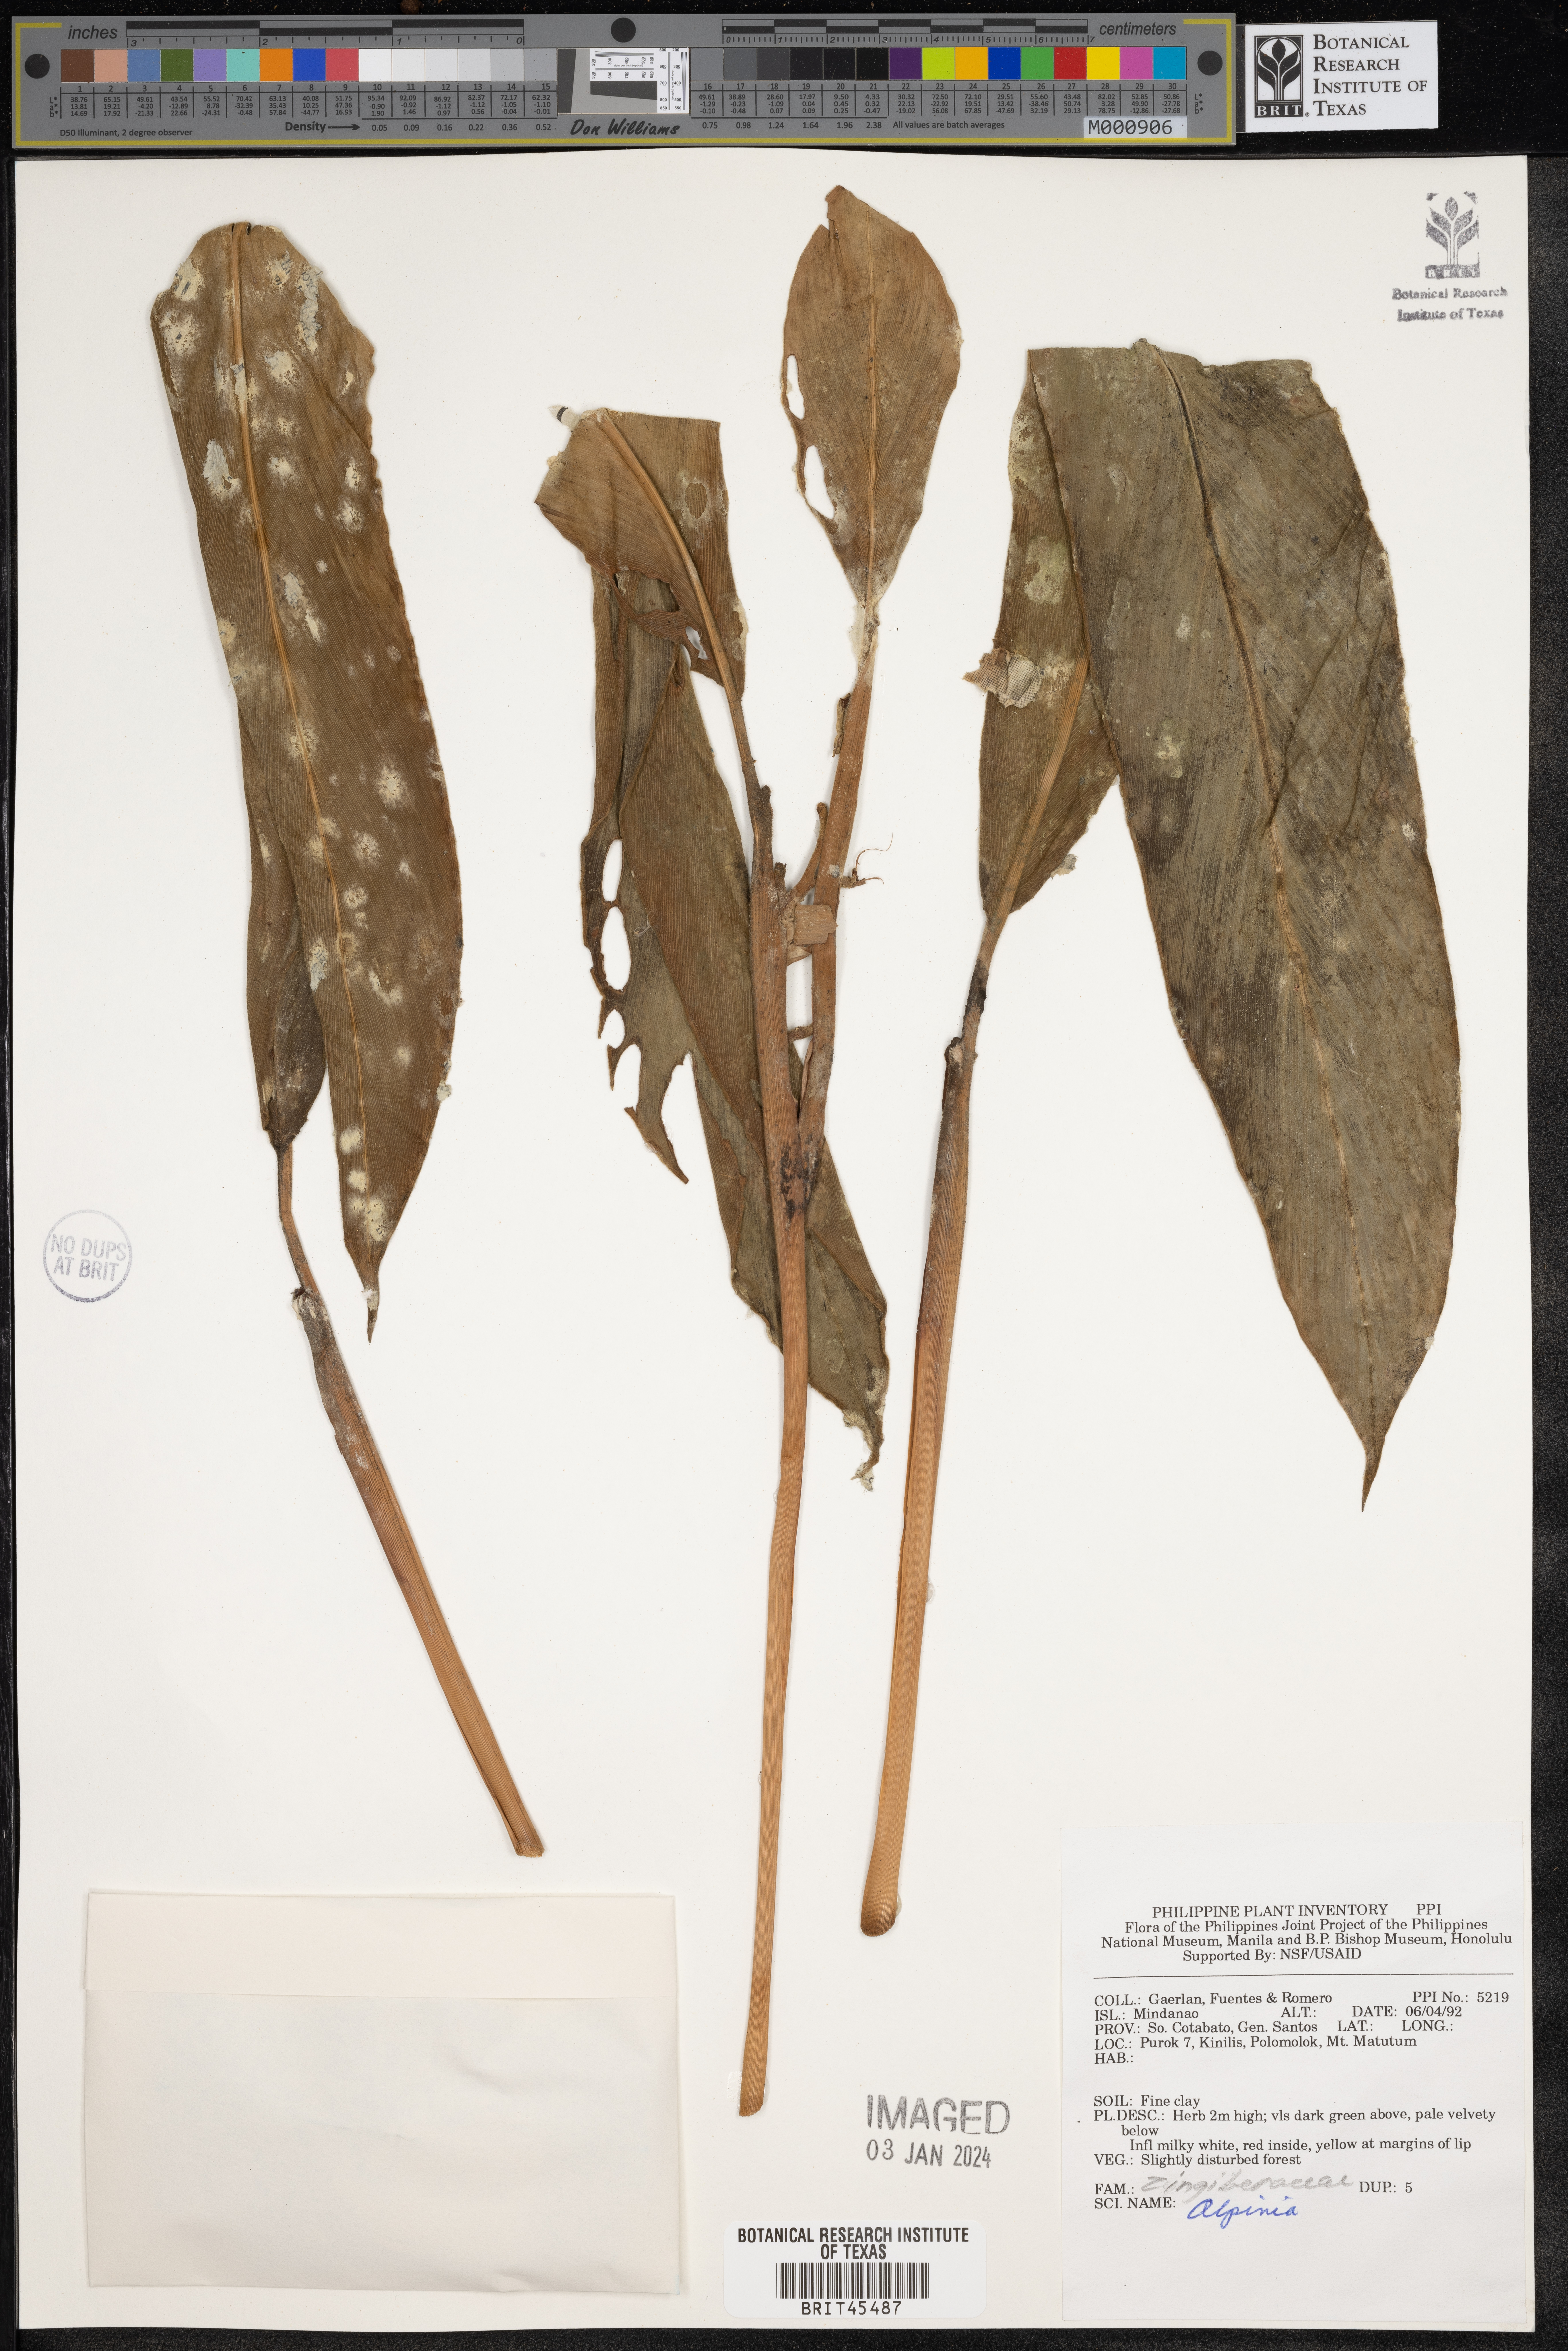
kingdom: Plantae
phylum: Tracheophyta
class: Liliopsida
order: Zingiberales
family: Zingiberaceae
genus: Alpinia
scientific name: Alpinia
